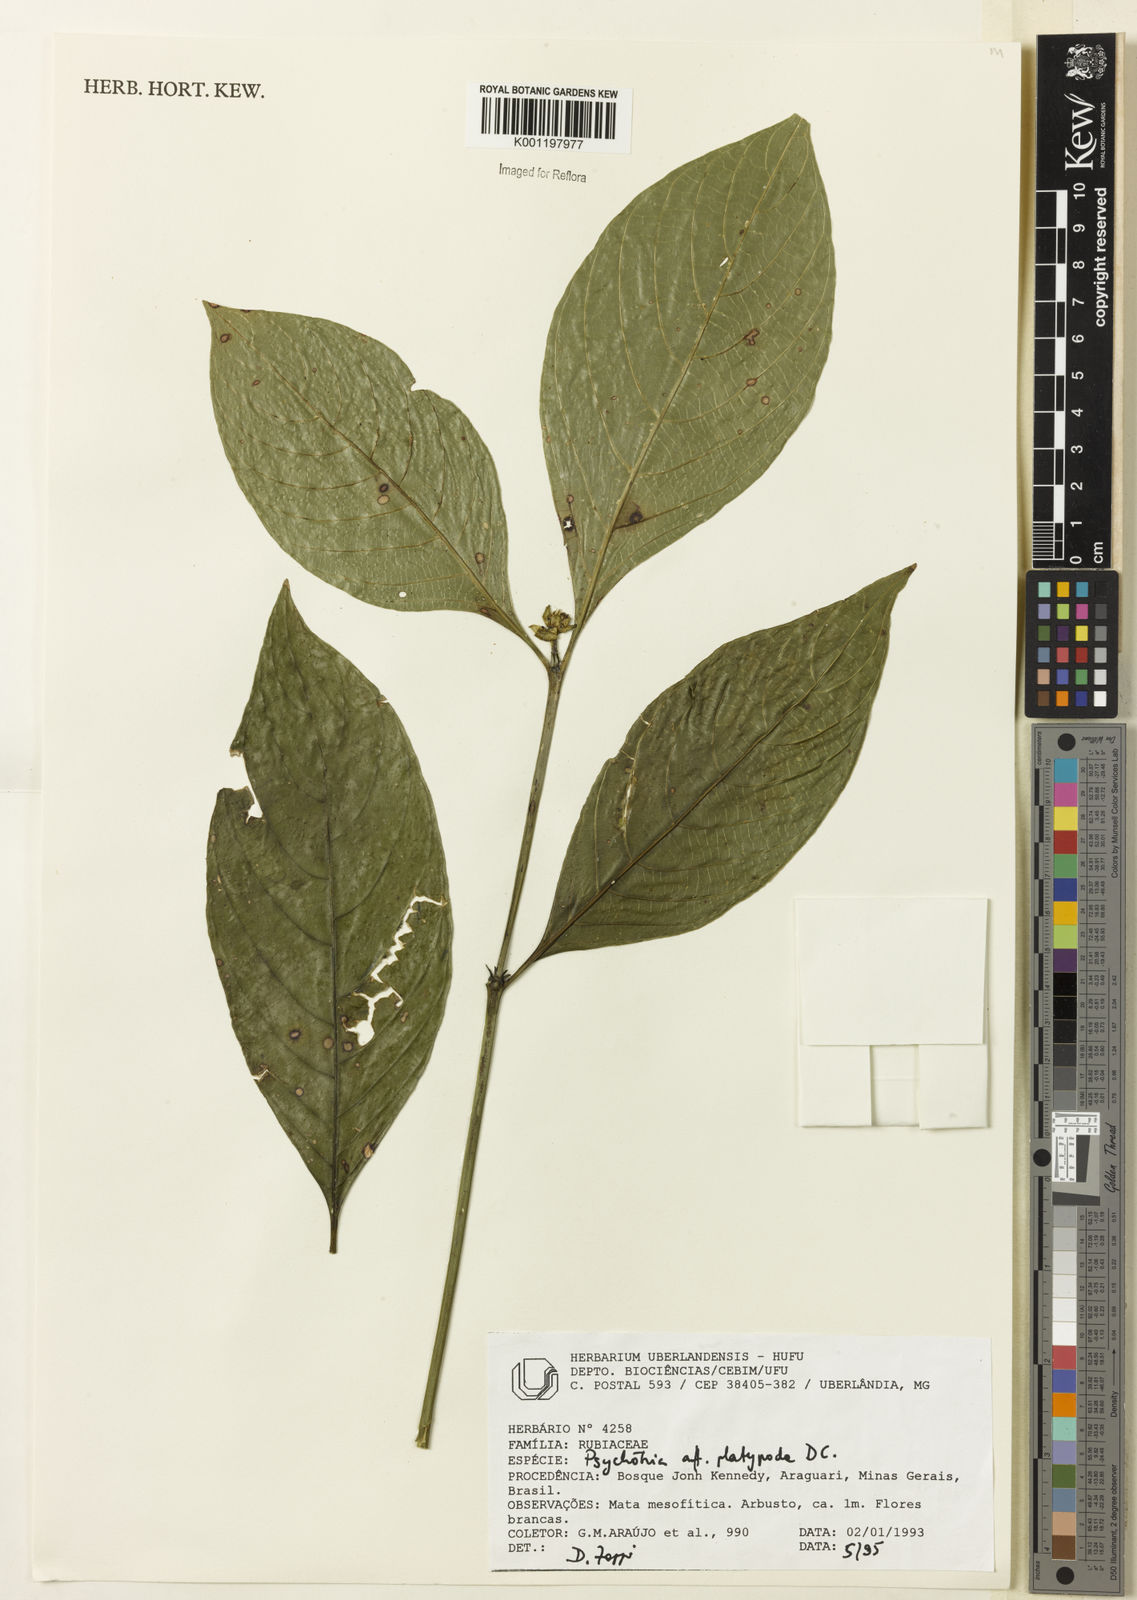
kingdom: Plantae
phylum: Tracheophyta
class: Magnoliopsida
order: Gentianales
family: Rubiaceae
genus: Palicourea
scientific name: Palicourea dichotoma
